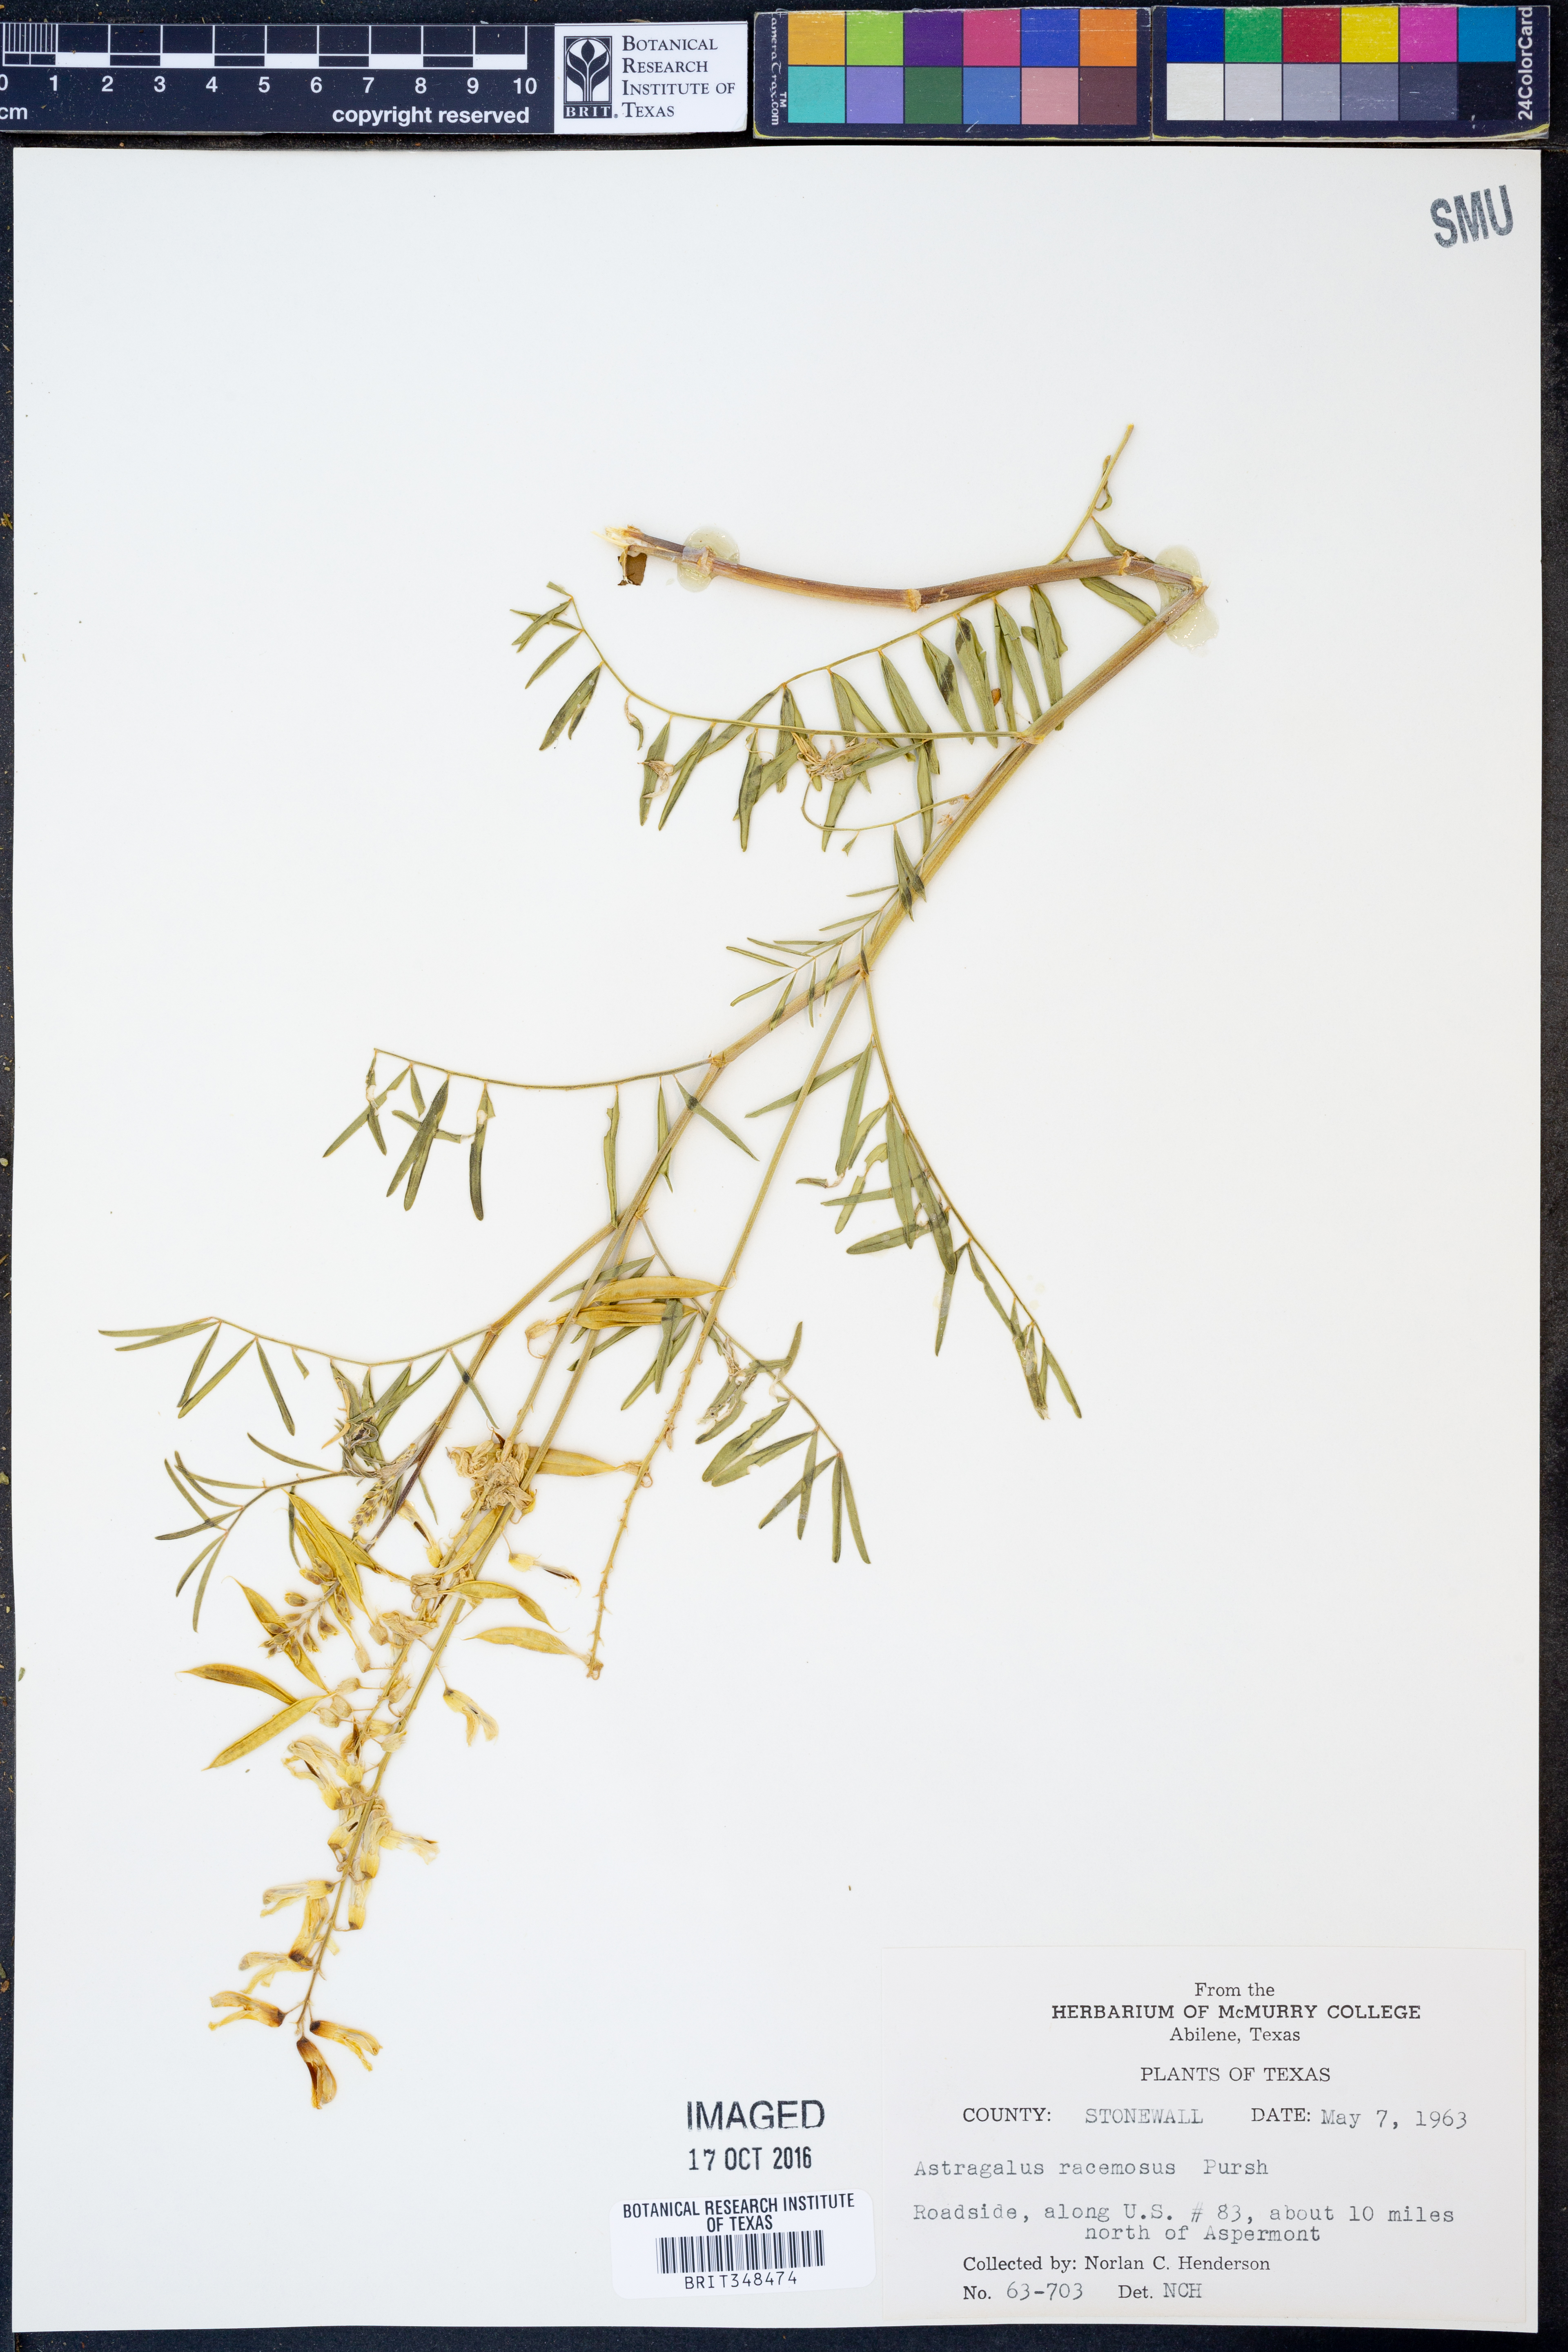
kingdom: Plantae
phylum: Tracheophyta
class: Magnoliopsida
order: Fabales
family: Fabaceae
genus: Astragalus
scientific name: Astragalus racemosus
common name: Alkali milk-vetch
